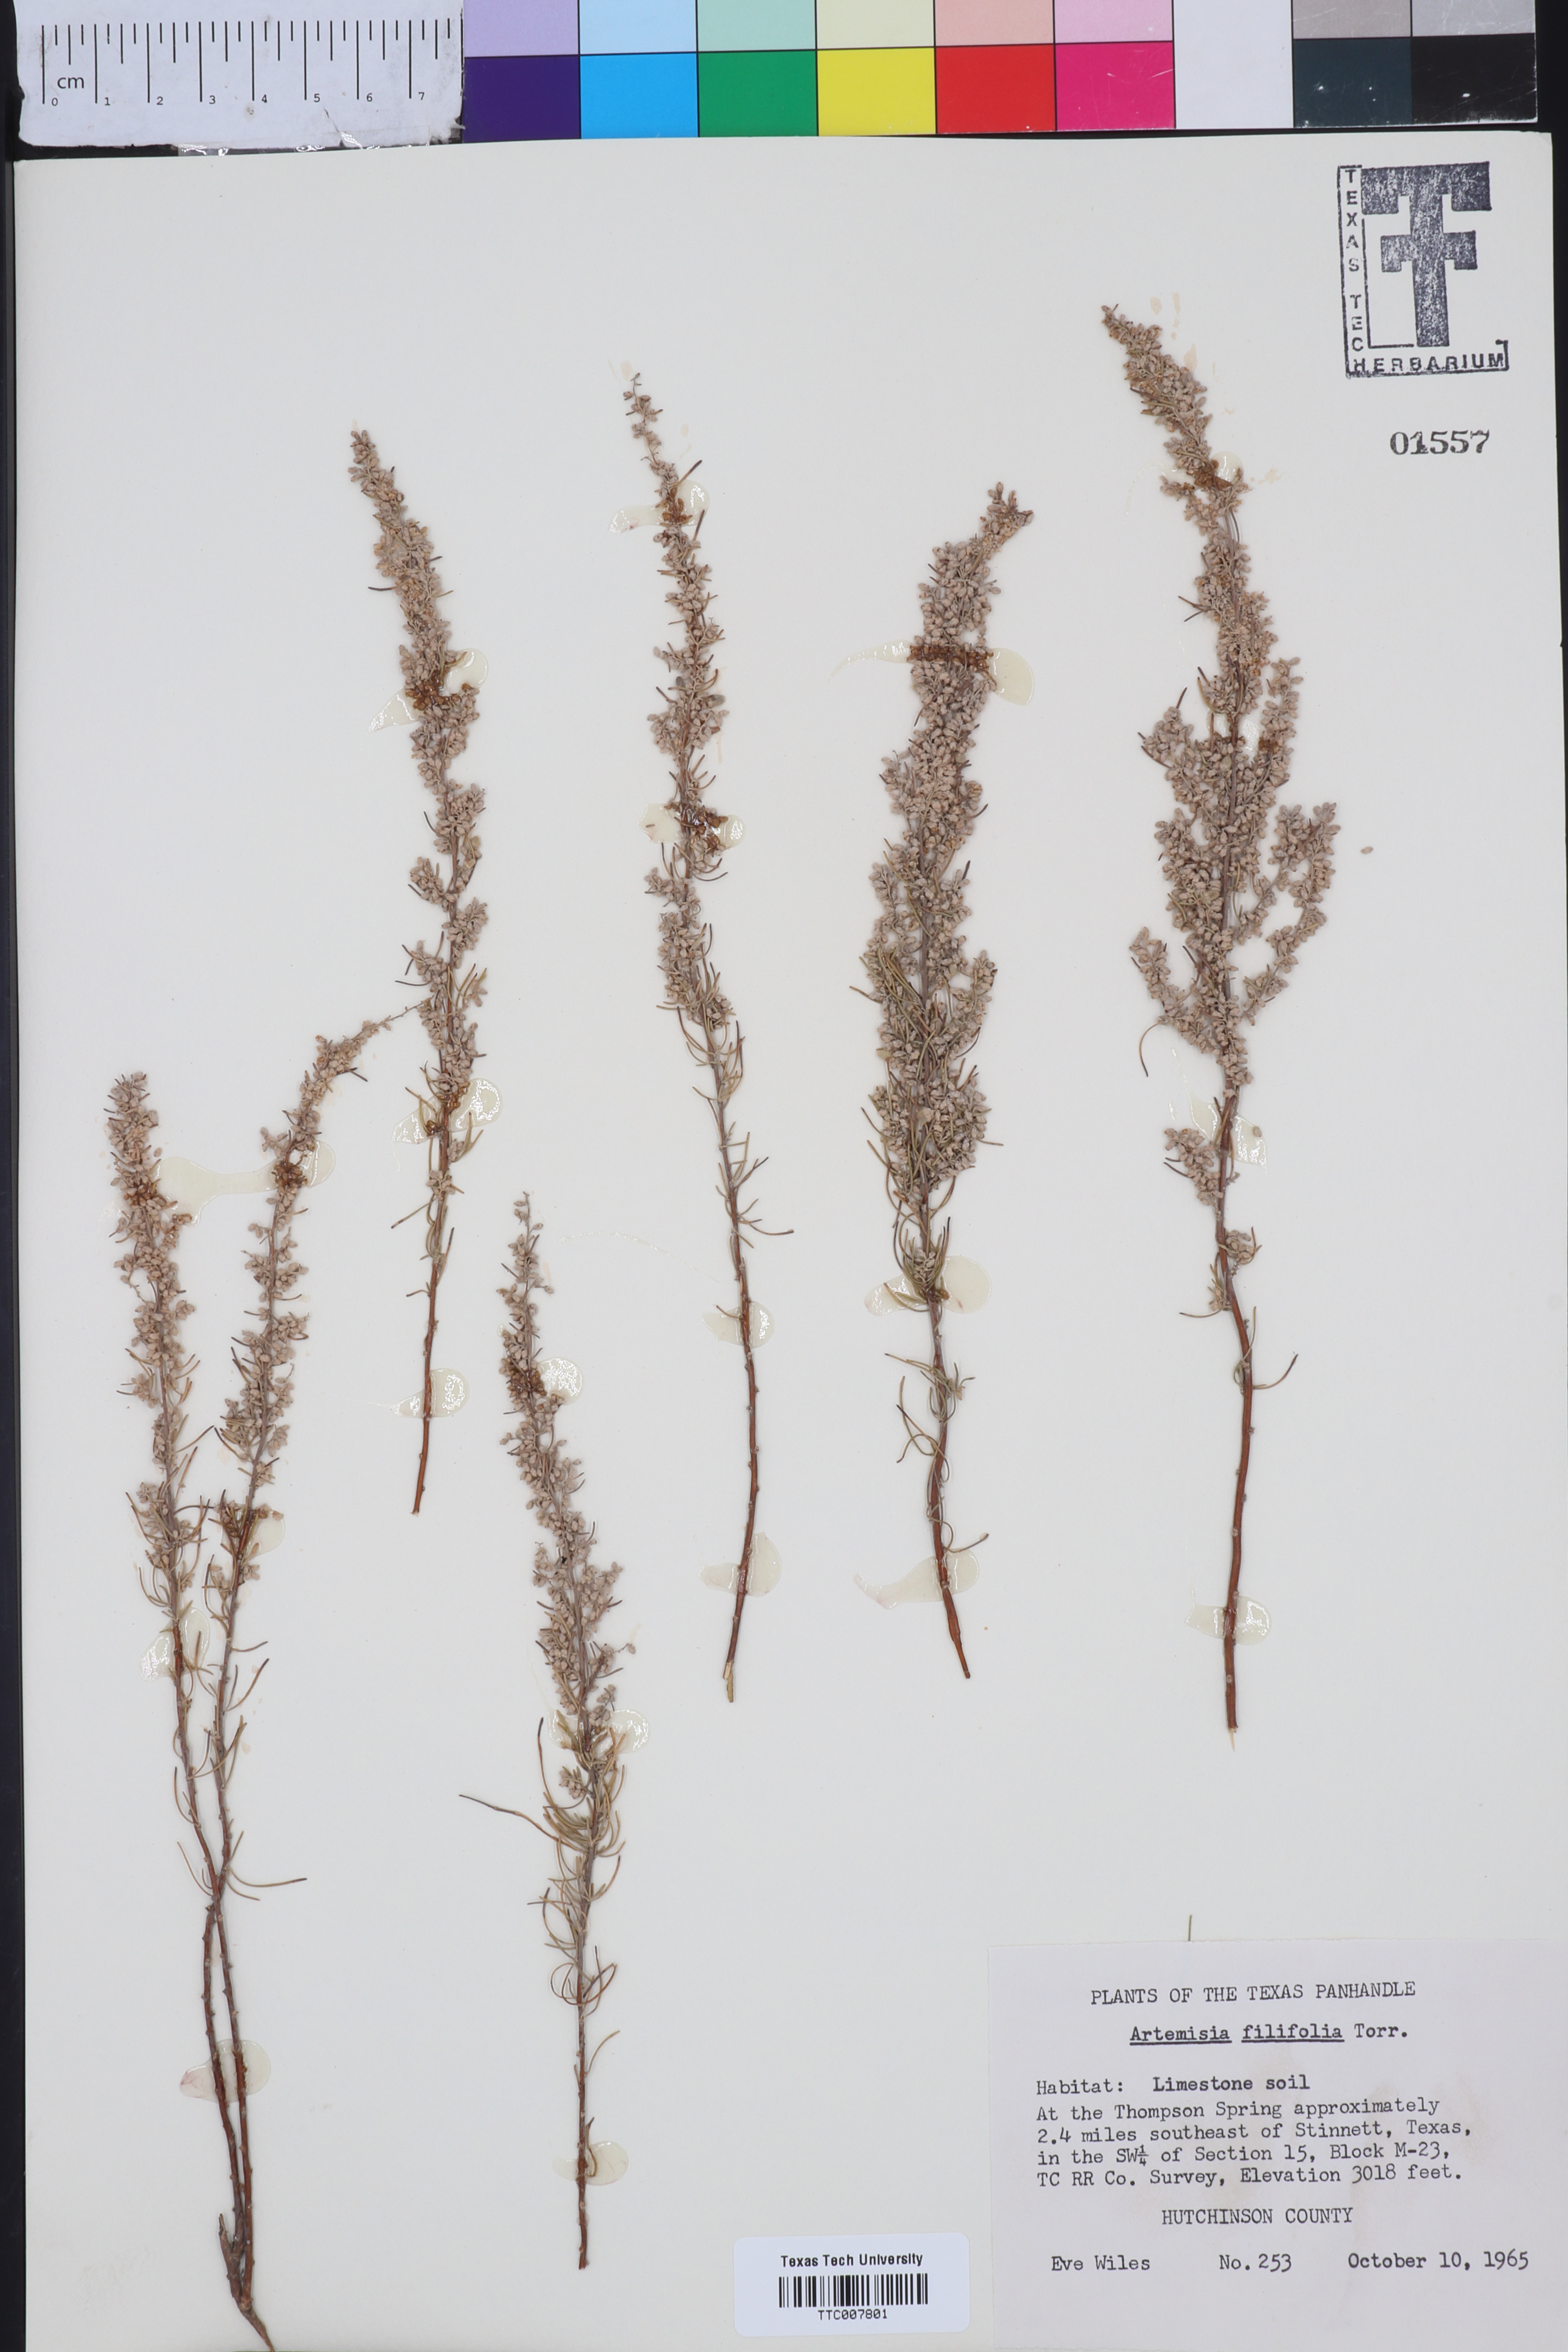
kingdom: Plantae
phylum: Tracheophyta
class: Magnoliopsida
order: Asterales
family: Asteraceae
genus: Artemisia
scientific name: Artemisia filifolia
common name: Sand-sage
